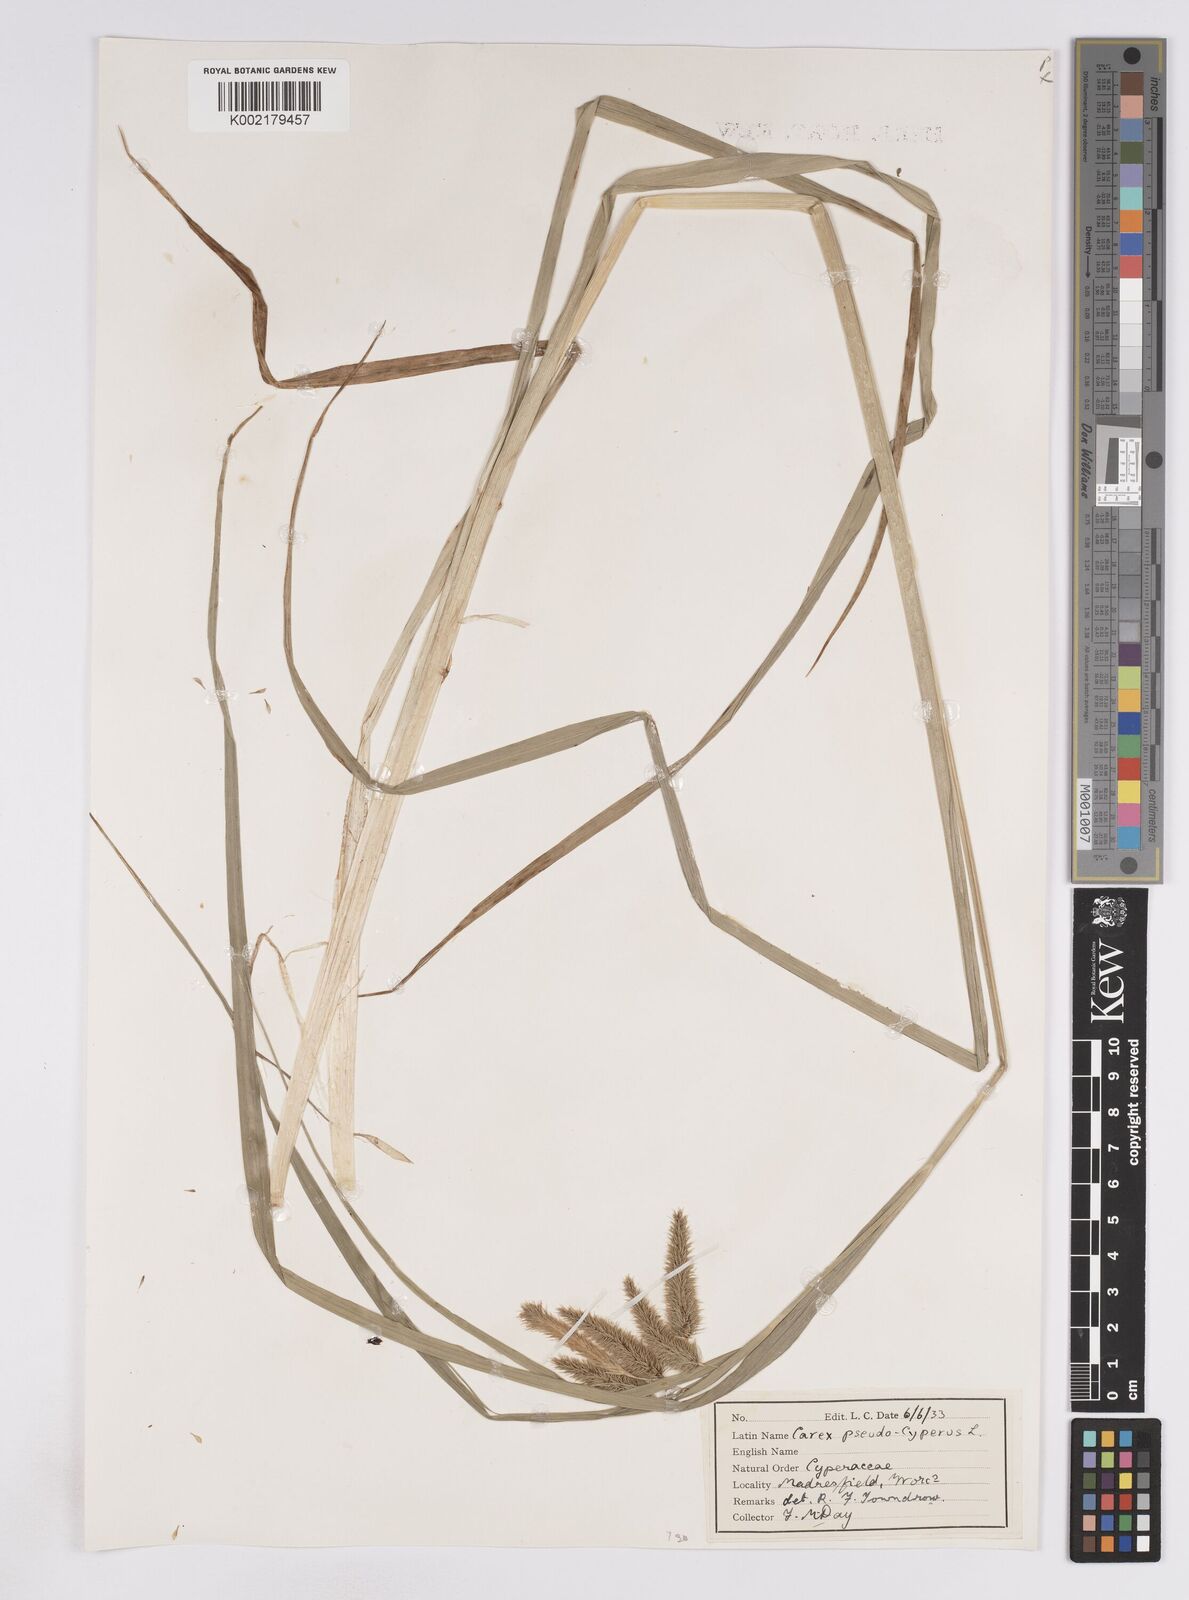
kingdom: Plantae
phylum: Tracheophyta
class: Liliopsida
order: Poales
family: Cyperaceae
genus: Carex
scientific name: Carex pseudocyperus
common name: Cyperus sedge
